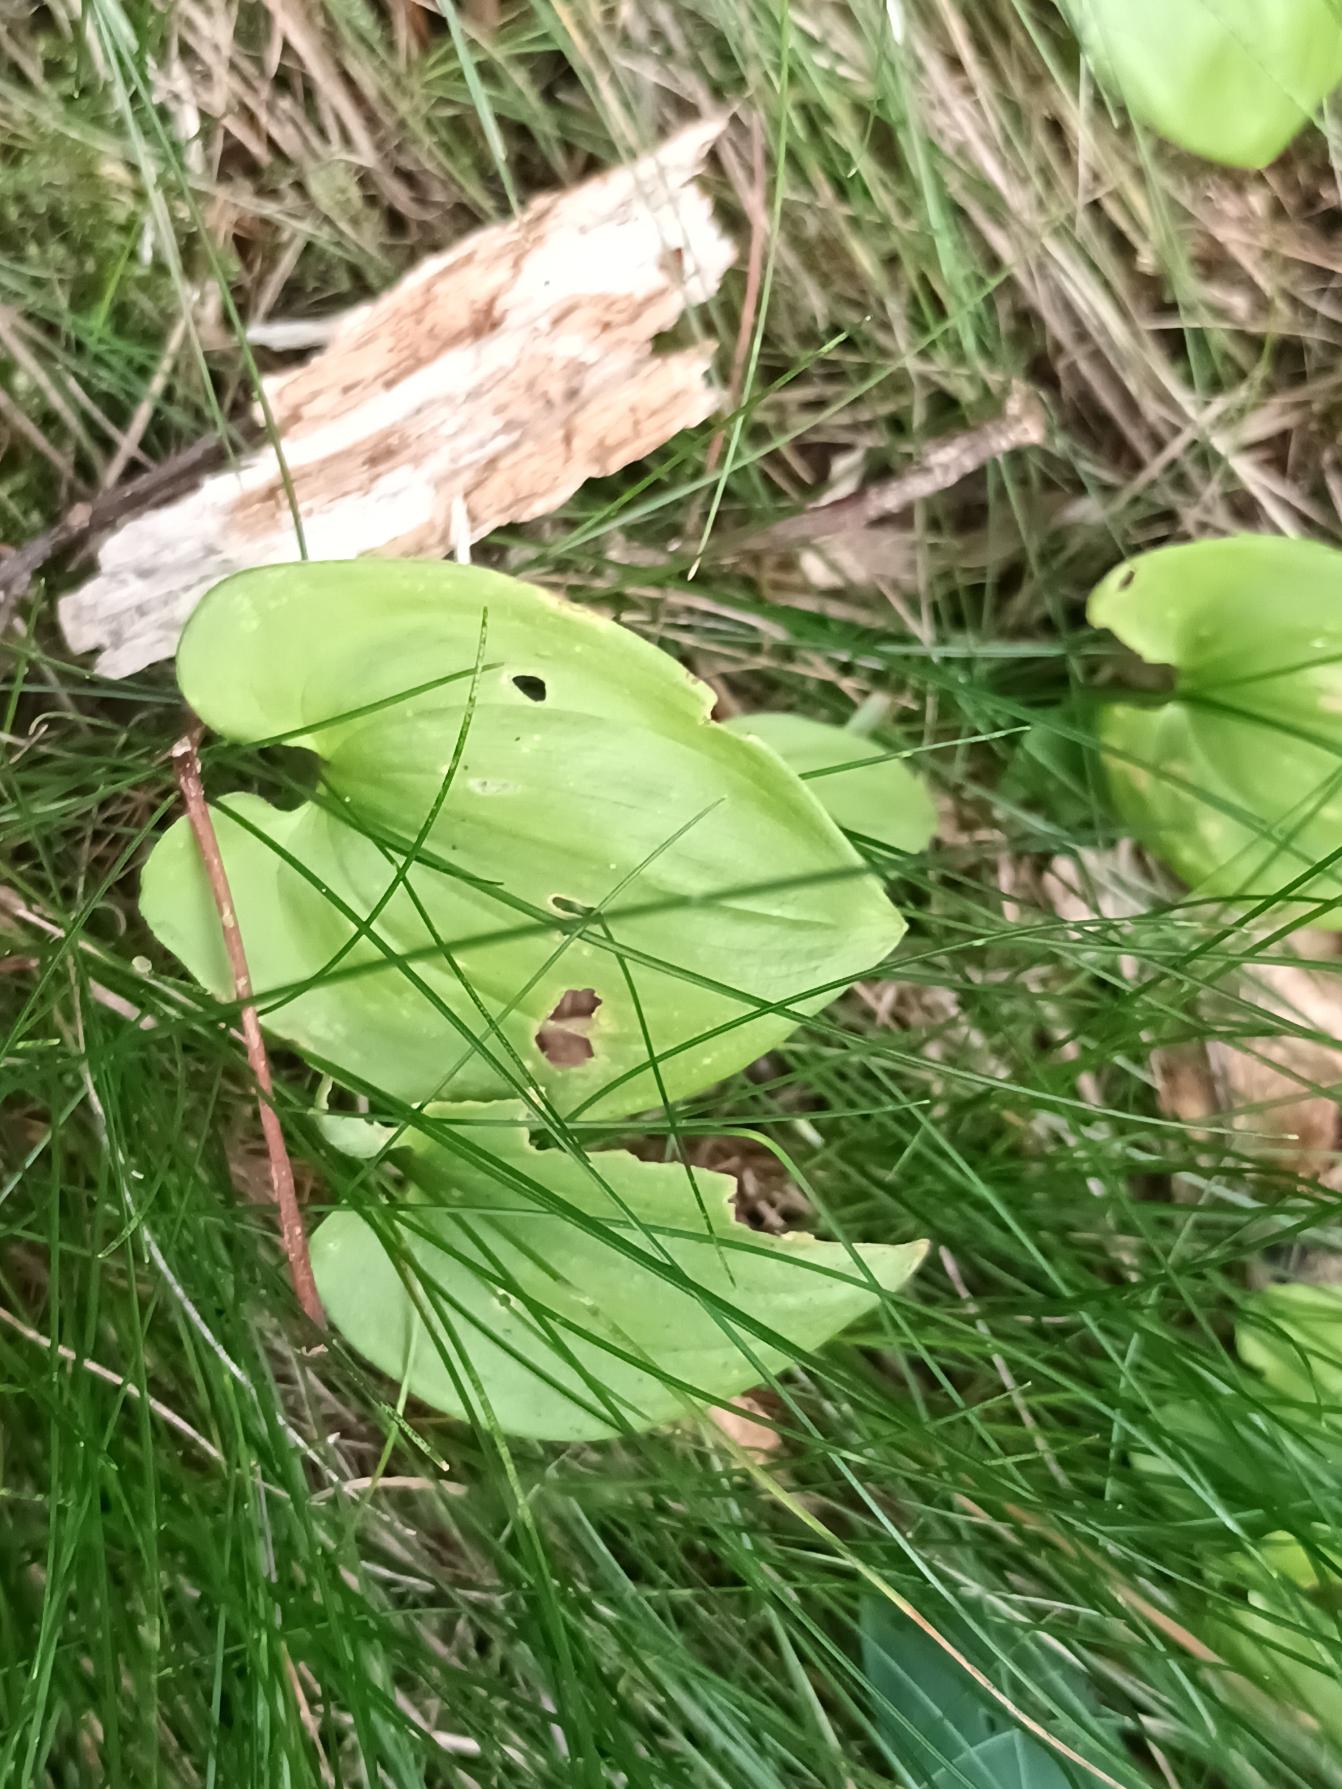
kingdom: Plantae
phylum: Tracheophyta
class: Liliopsida
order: Asparagales
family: Asparagaceae
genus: Maianthemum
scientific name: Maianthemum bifolium
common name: Majblomst
